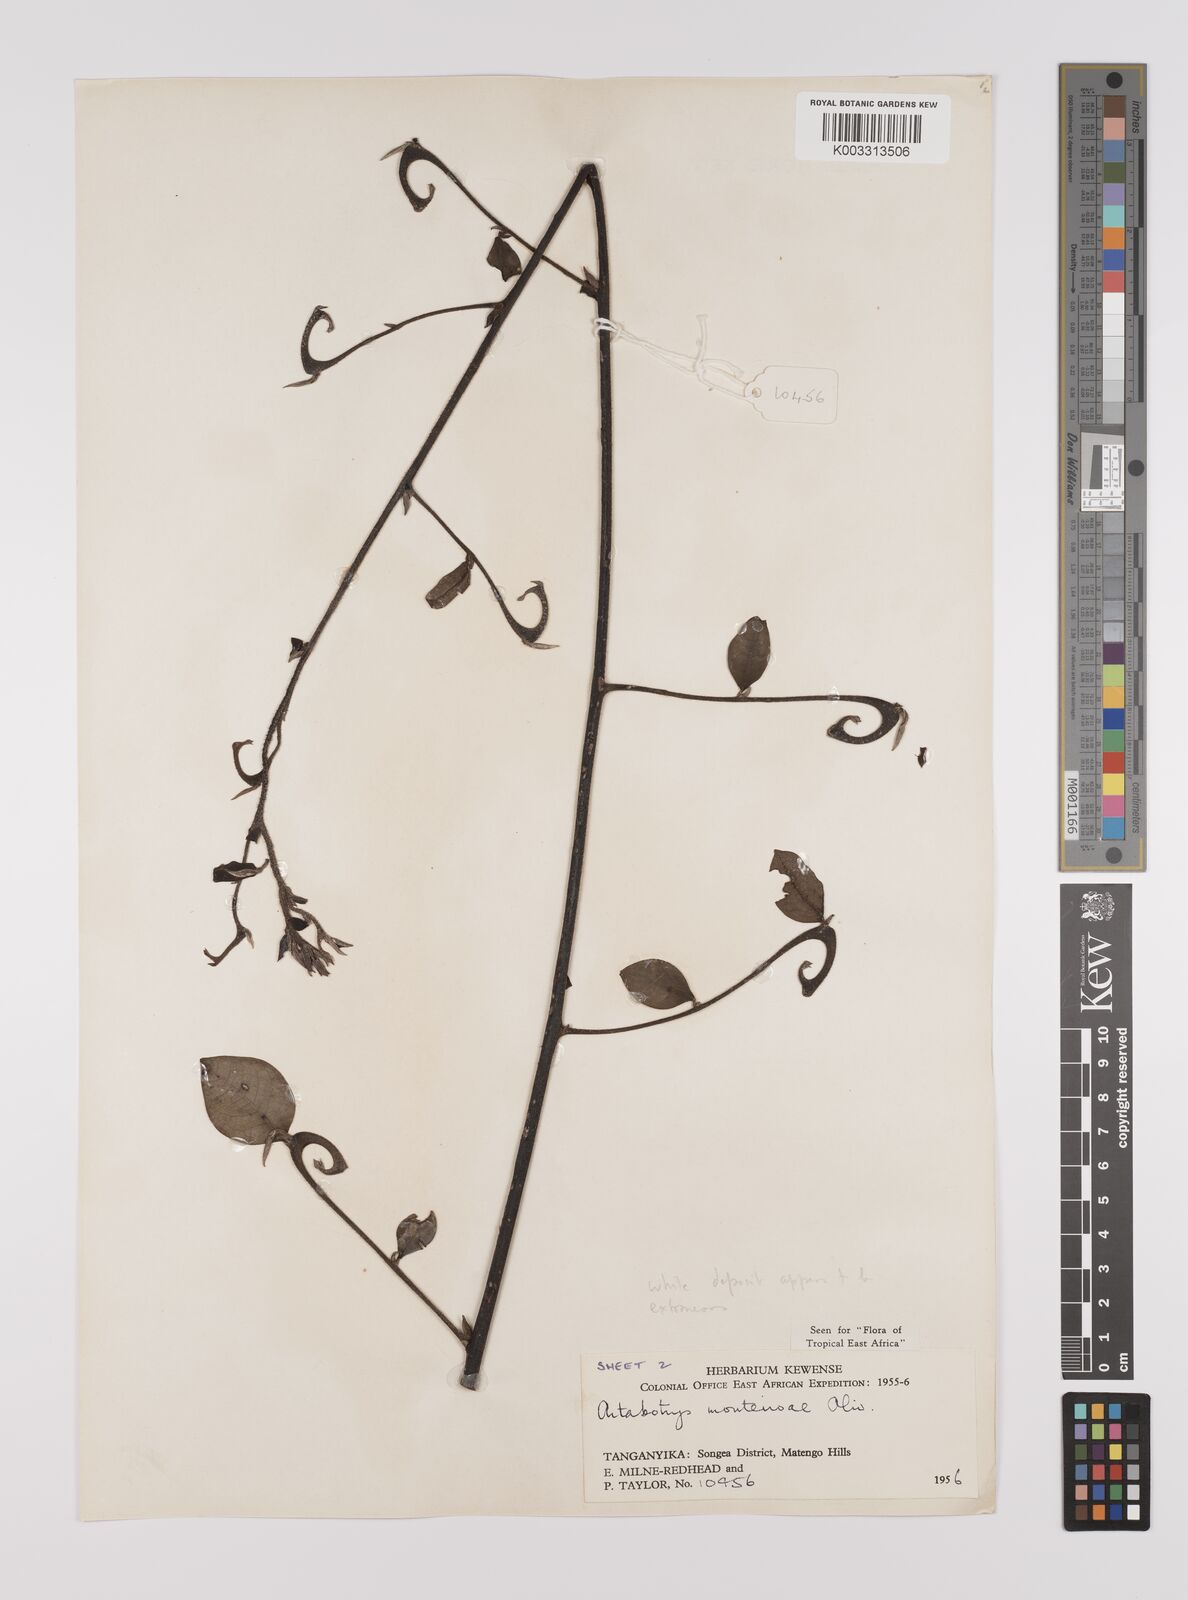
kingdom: Plantae
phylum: Tracheophyta
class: Magnoliopsida
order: Magnoliales
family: Annonaceae
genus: Artabotrys
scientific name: Artabotrys monteiroae
